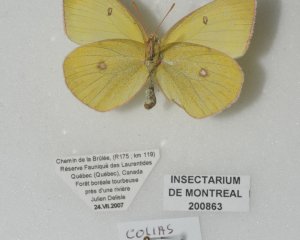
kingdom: Animalia
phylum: Arthropoda
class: Insecta
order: Lepidoptera
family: Pieridae
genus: Colias
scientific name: Colias interior
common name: Pink-edged Sulphur
